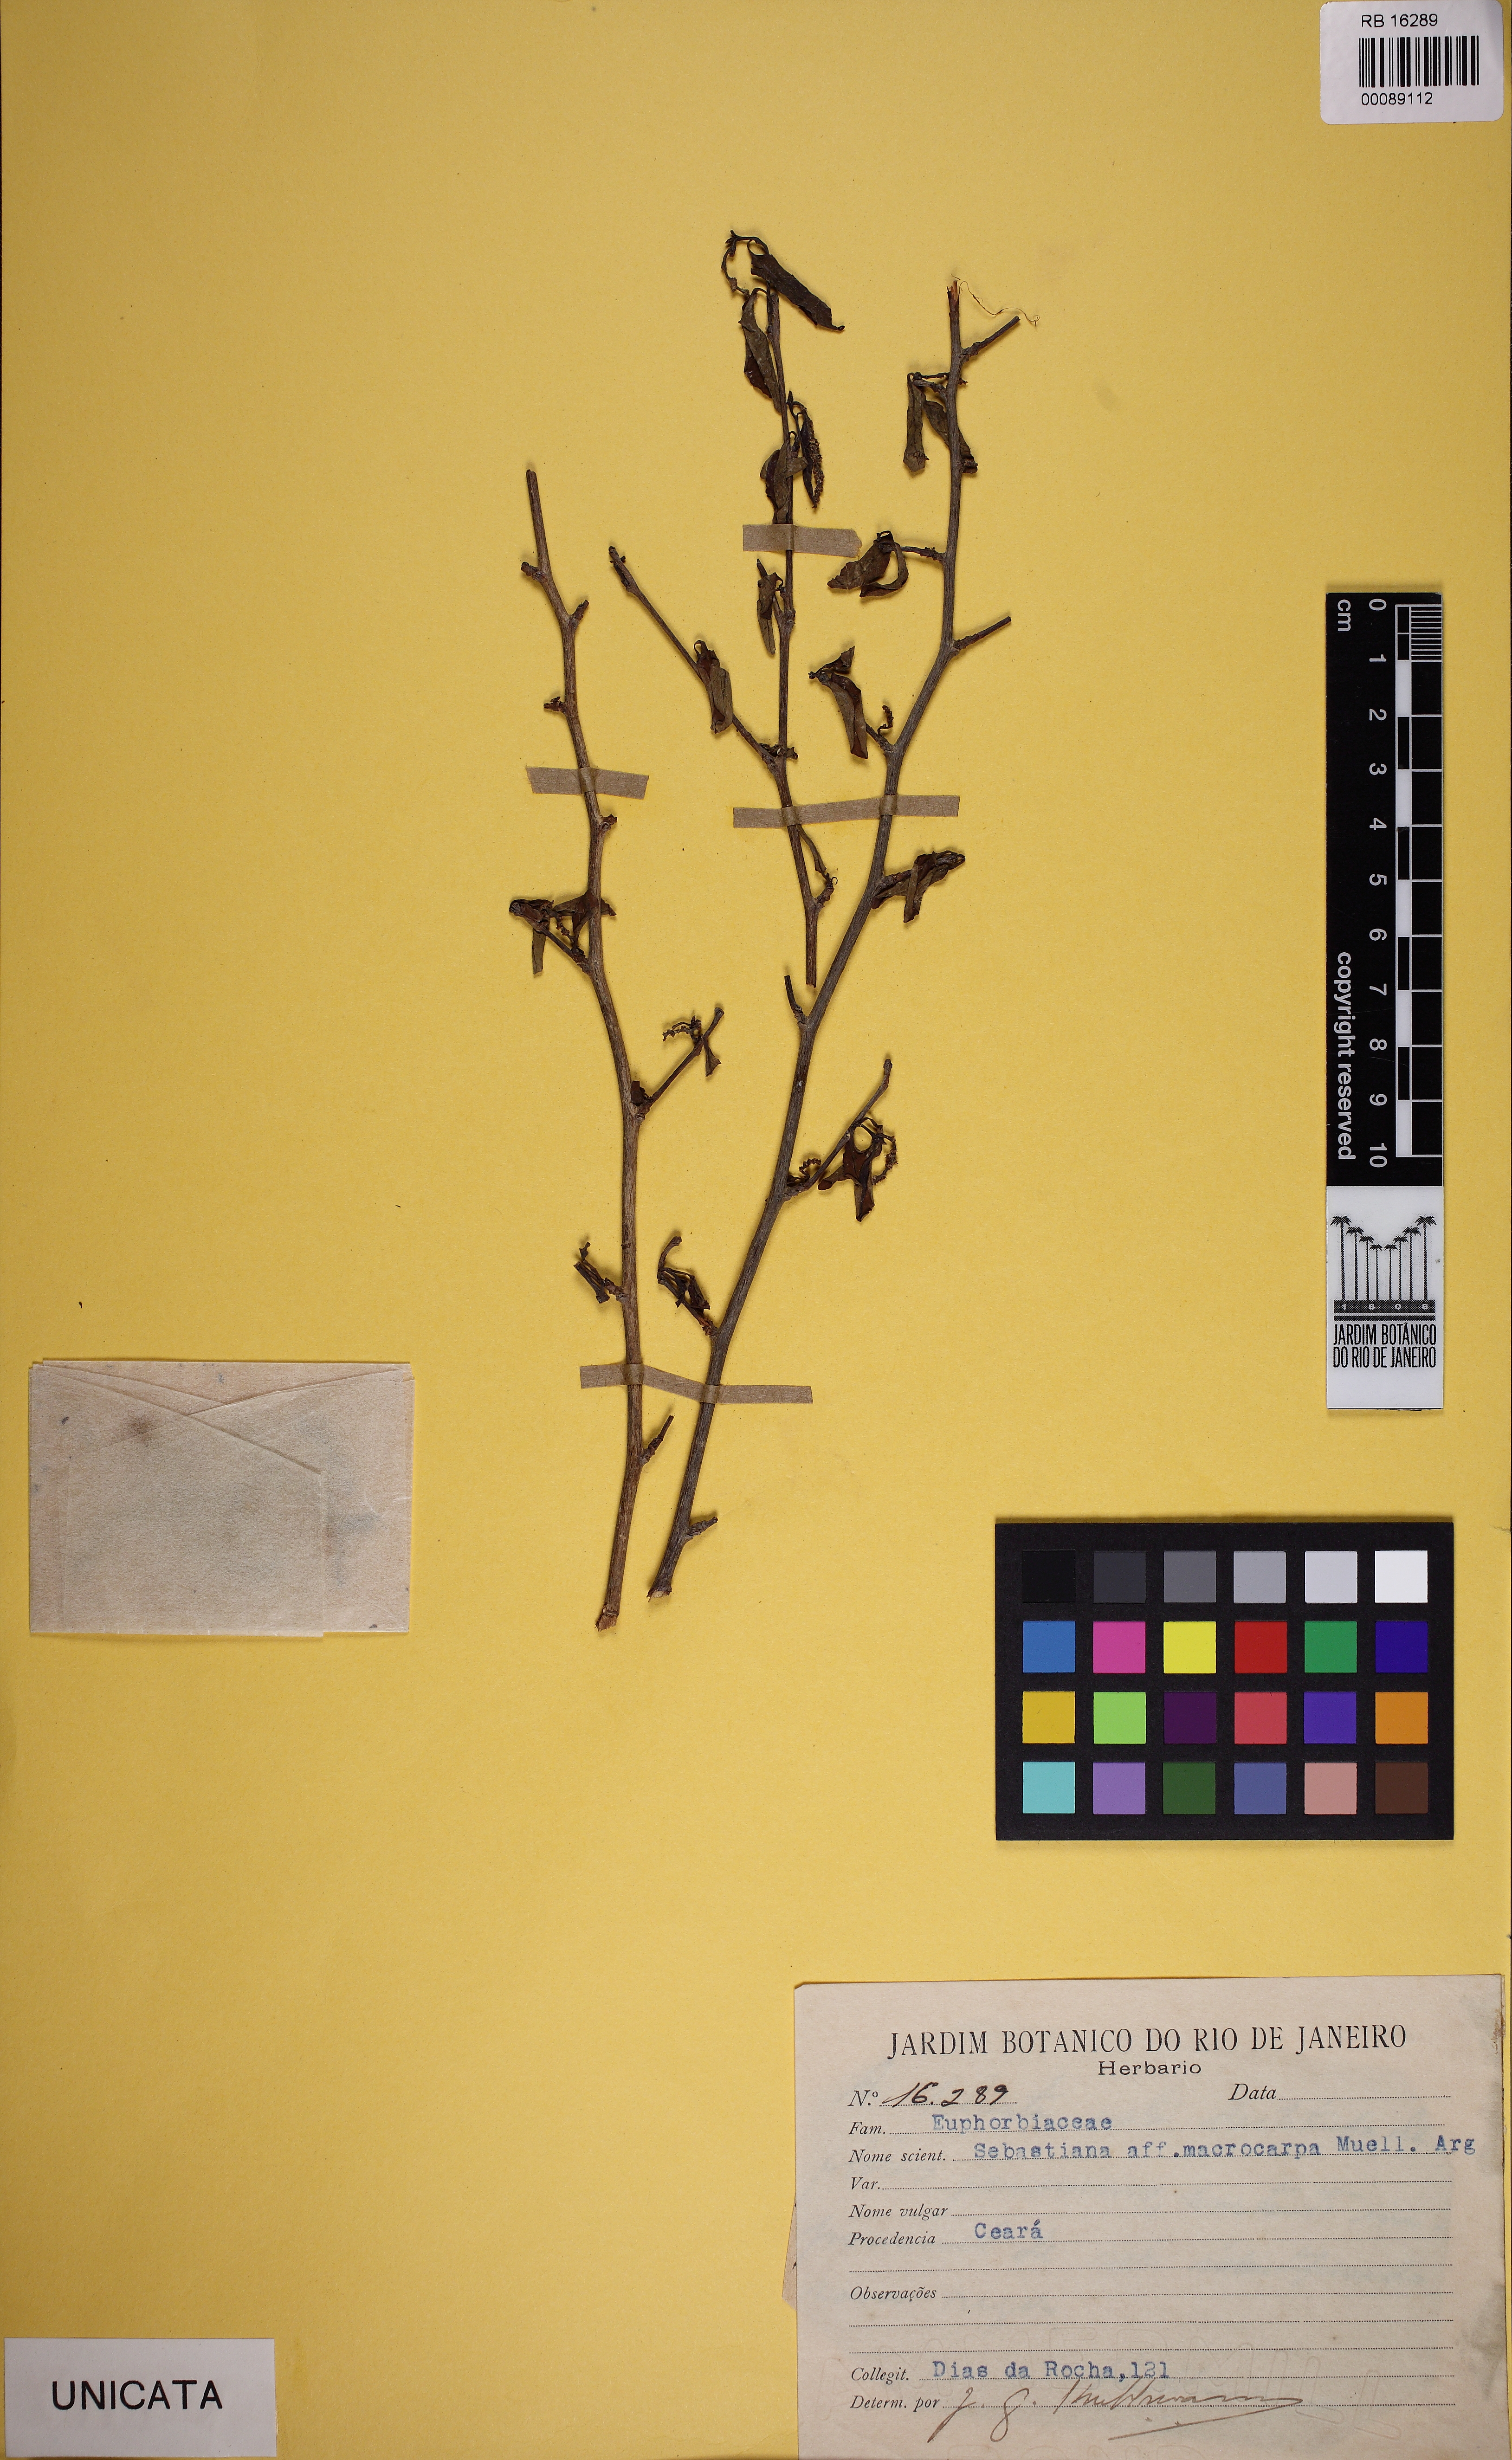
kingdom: Plantae
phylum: Tracheophyta
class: Magnoliopsida
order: Malpighiales
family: Euphorbiaceae
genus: Sebastiania
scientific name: Sebastiania macrocarpa
